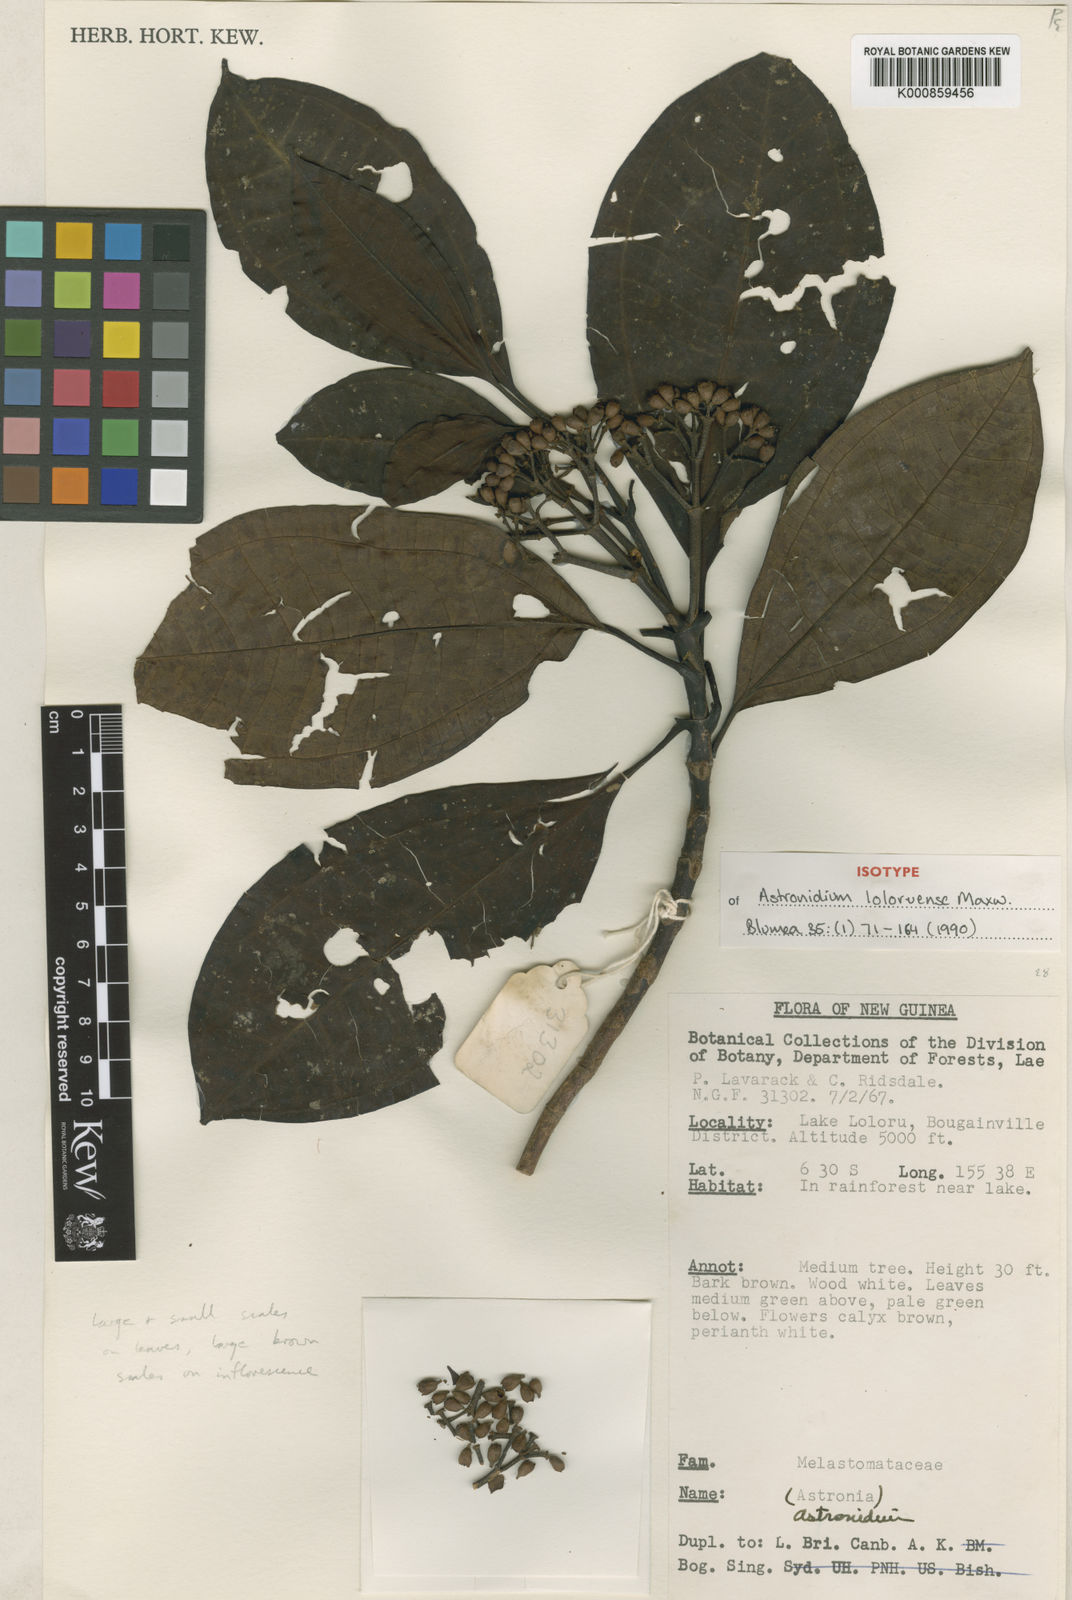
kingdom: Plantae
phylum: Tracheophyta
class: Magnoliopsida
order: Myrtales
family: Melastomataceae
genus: Astronidium
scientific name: Astronidium loloruense
